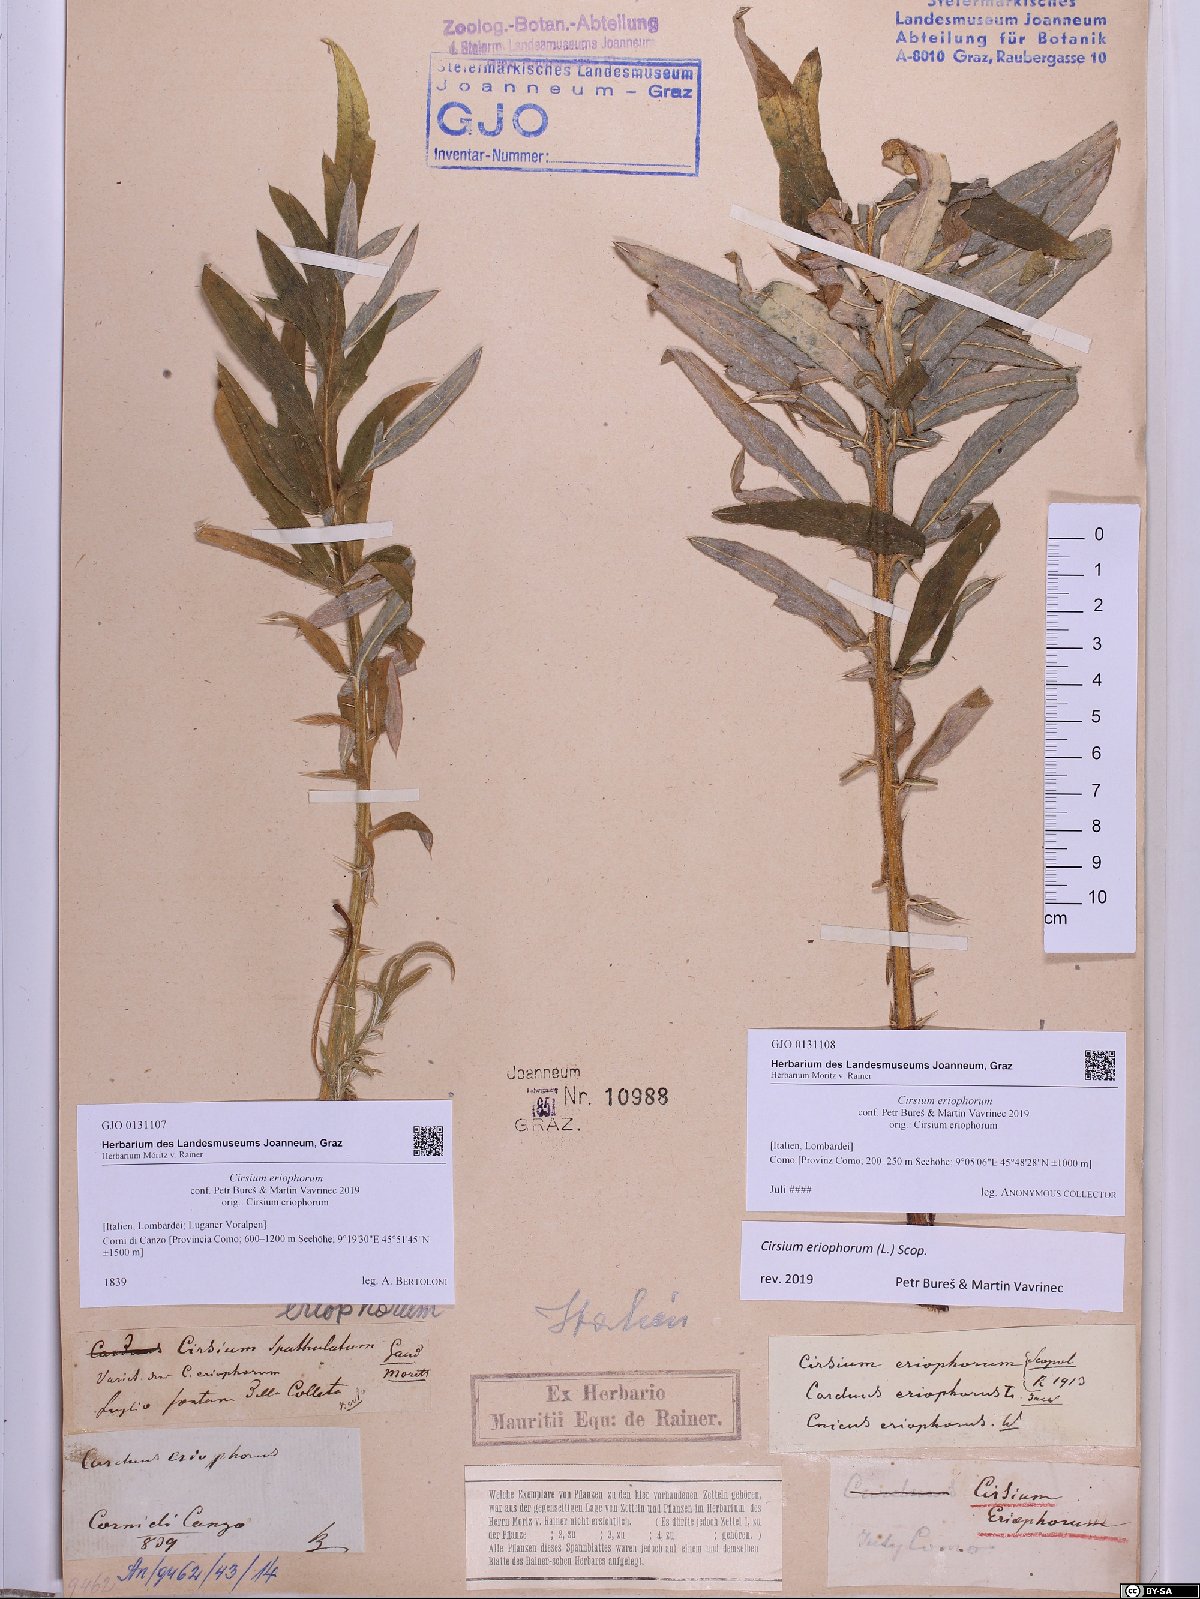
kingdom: Plantae
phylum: Tracheophyta
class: Magnoliopsida
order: Asterales
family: Asteraceae
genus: Lophiolepis
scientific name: Lophiolepis eriophora
